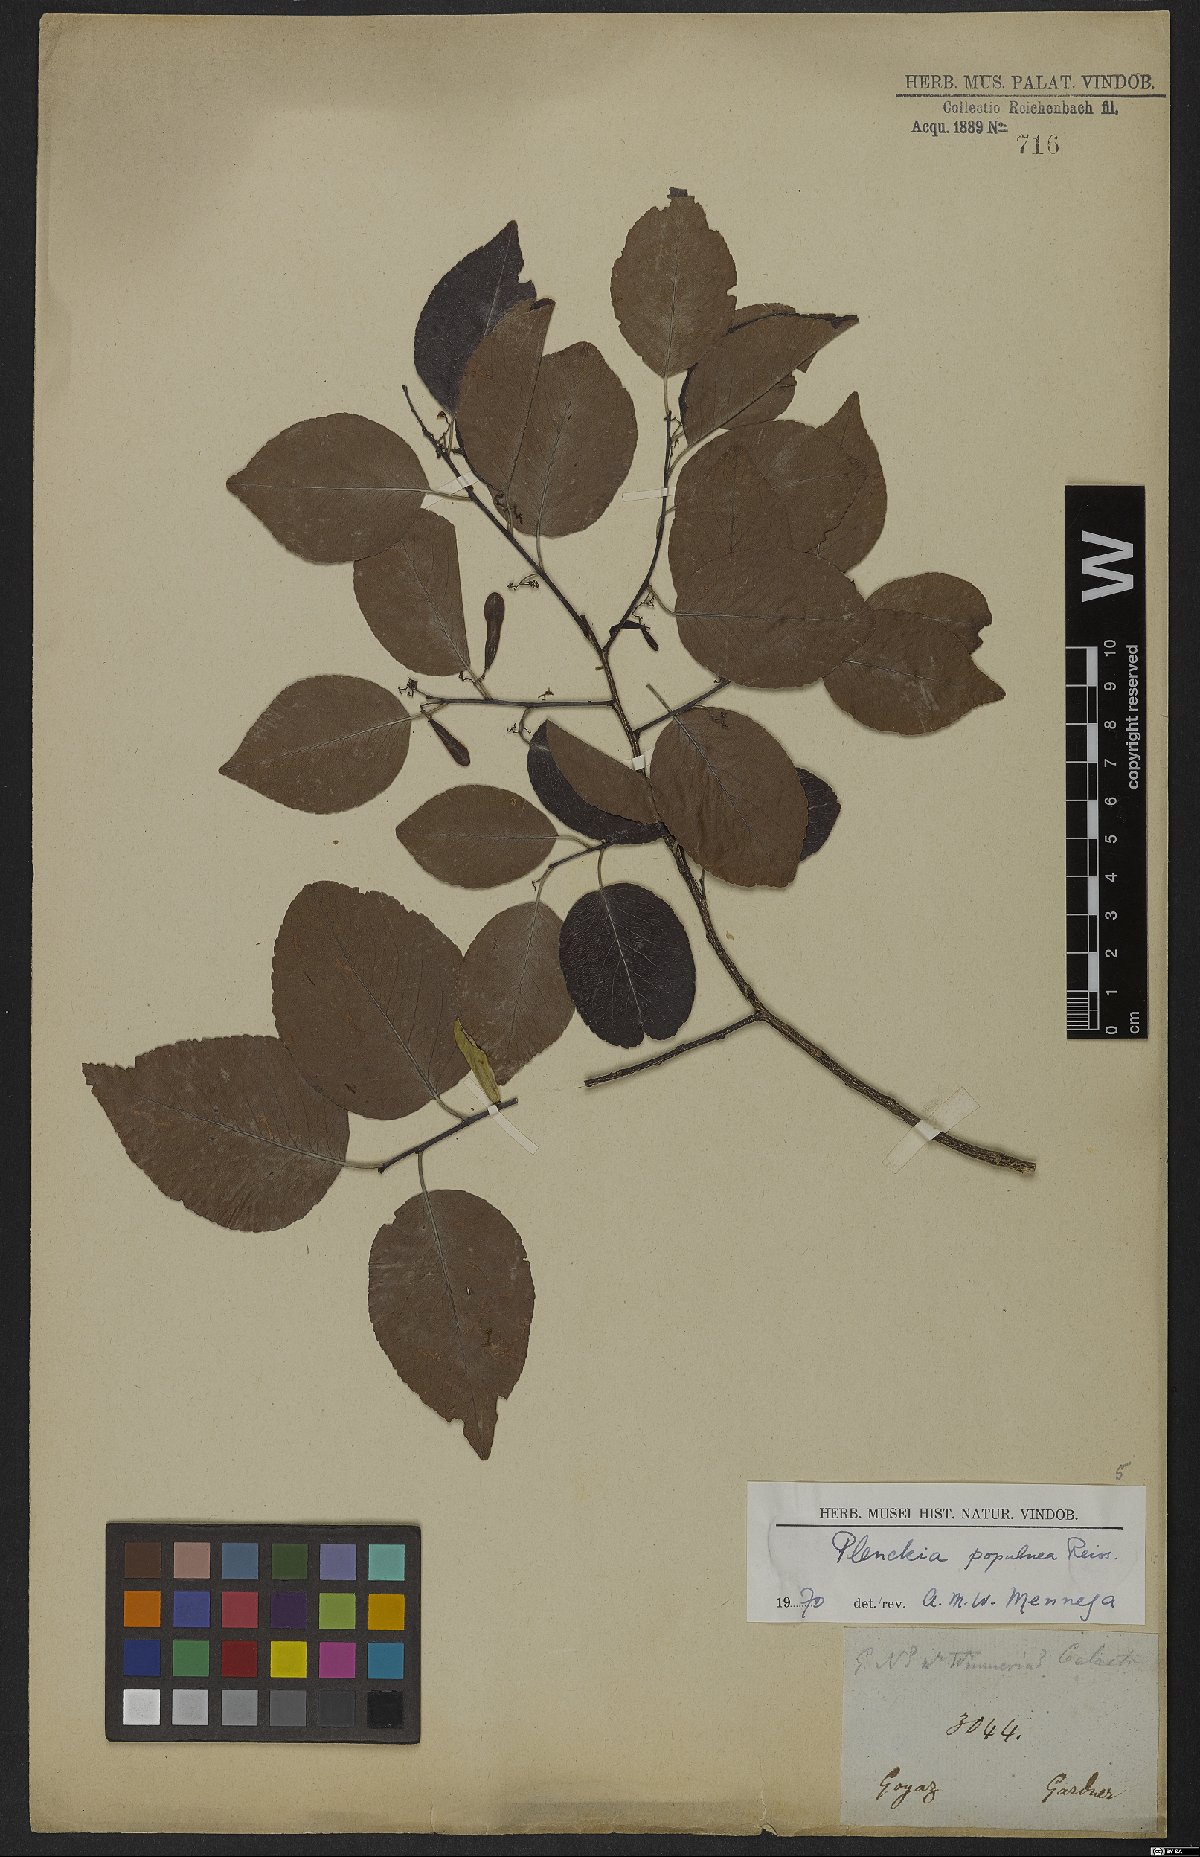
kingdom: Plantae
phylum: Tracheophyta
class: Magnoliopsida
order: Celastrales
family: Celastraceae
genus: Plenckia
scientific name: Plenckia populnea
